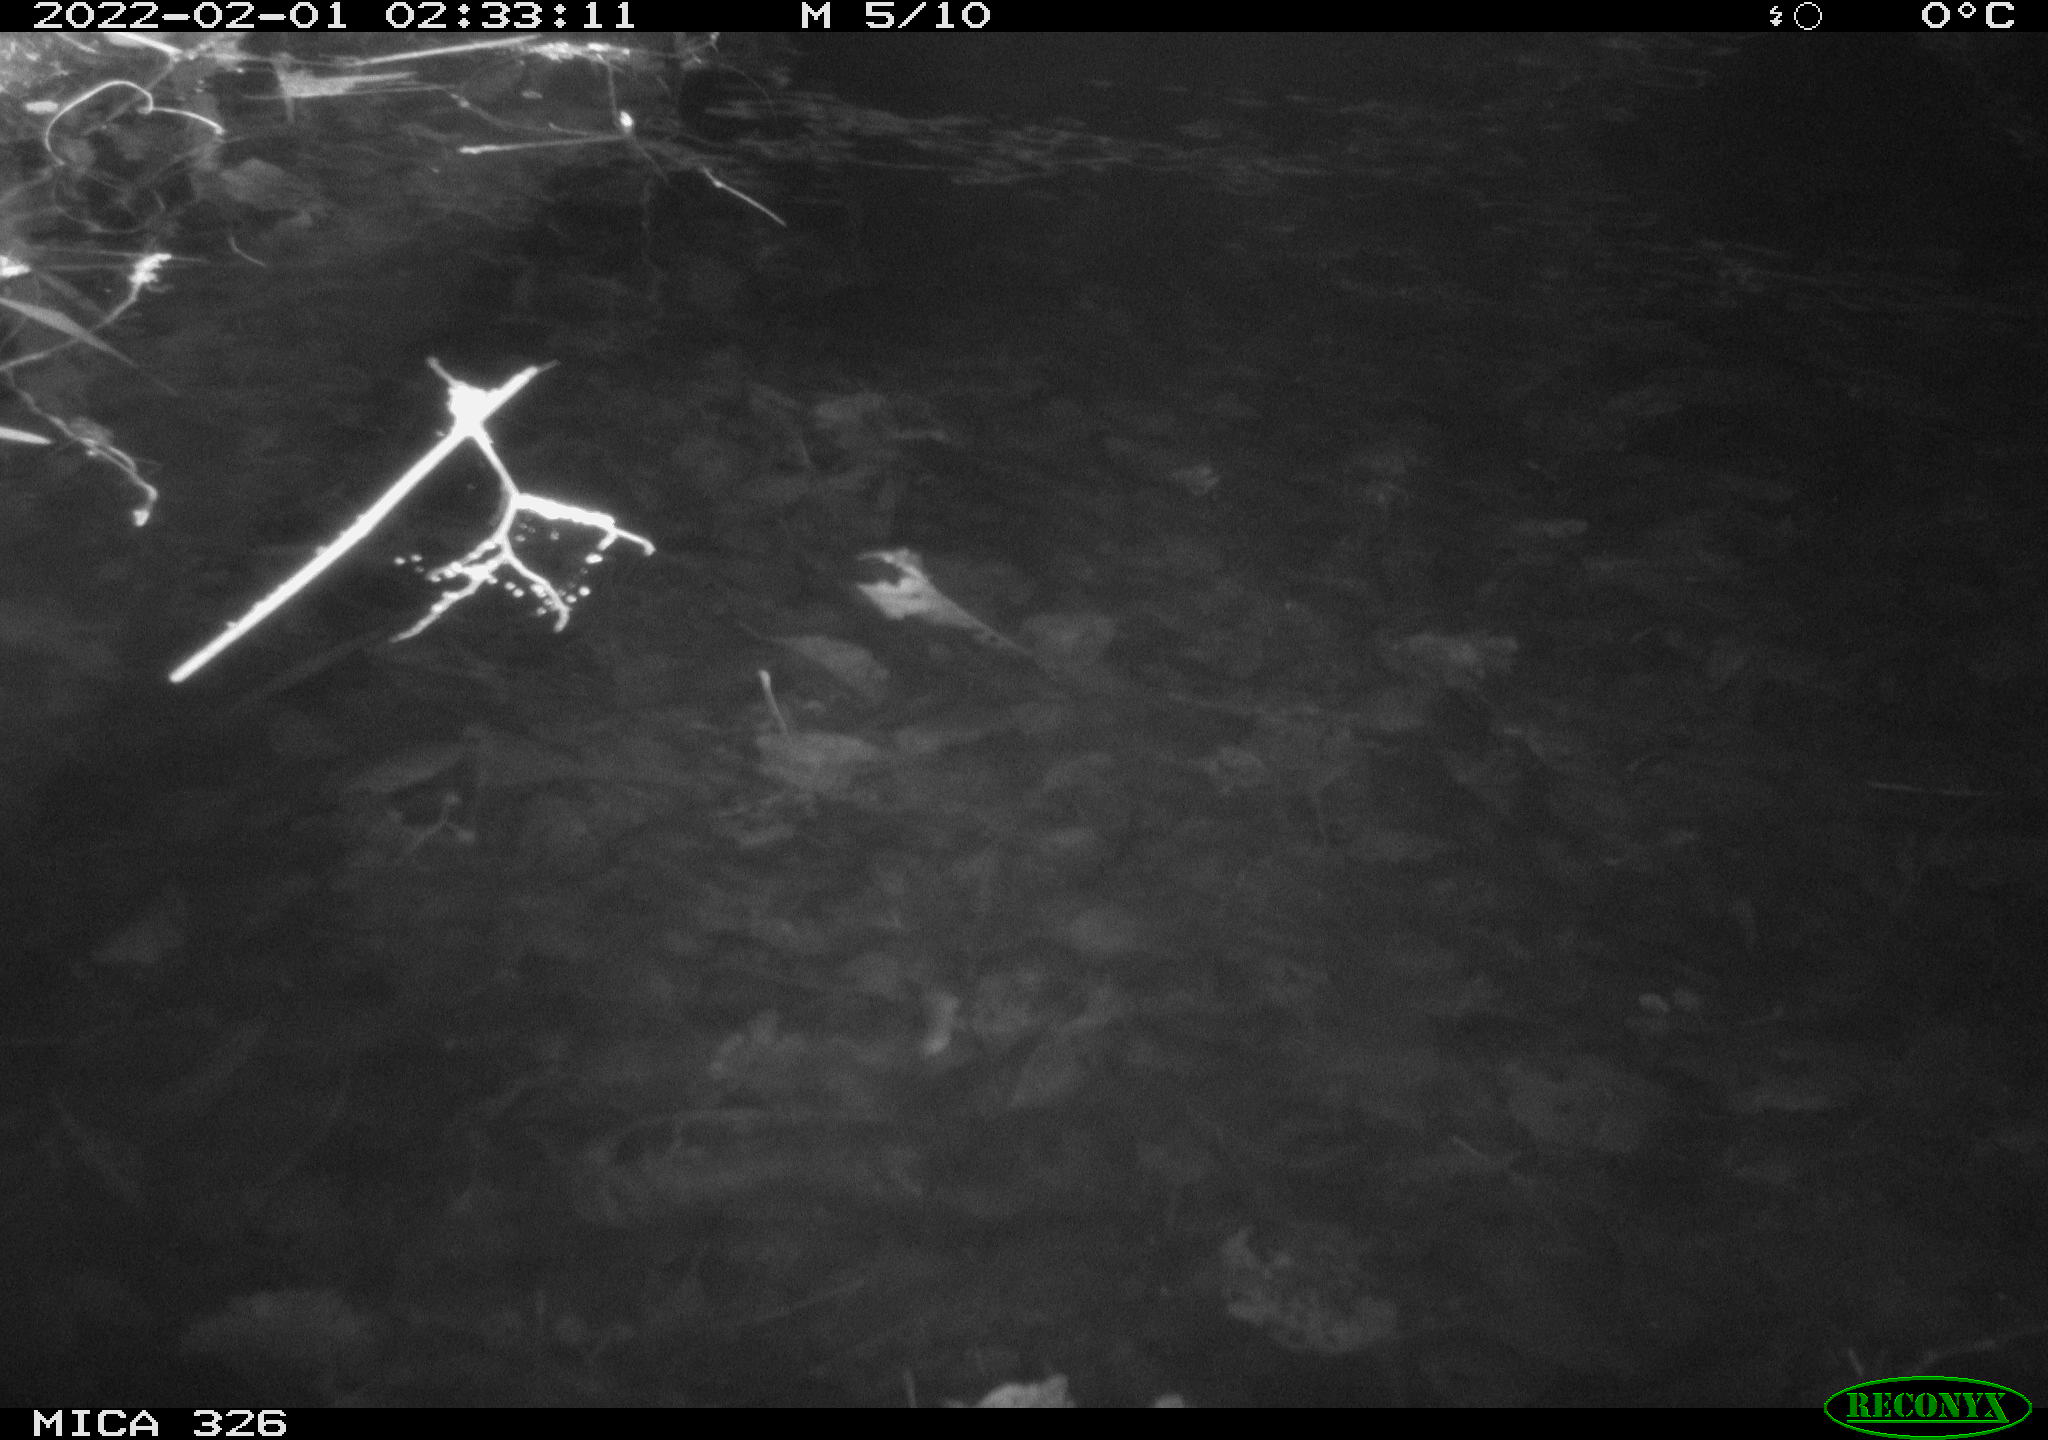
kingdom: Animalia
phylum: Chordata
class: Mammalia
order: Rodentia
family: Cricetidae
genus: Ondatra
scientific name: Ondatra zibethicus
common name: Muskrat
